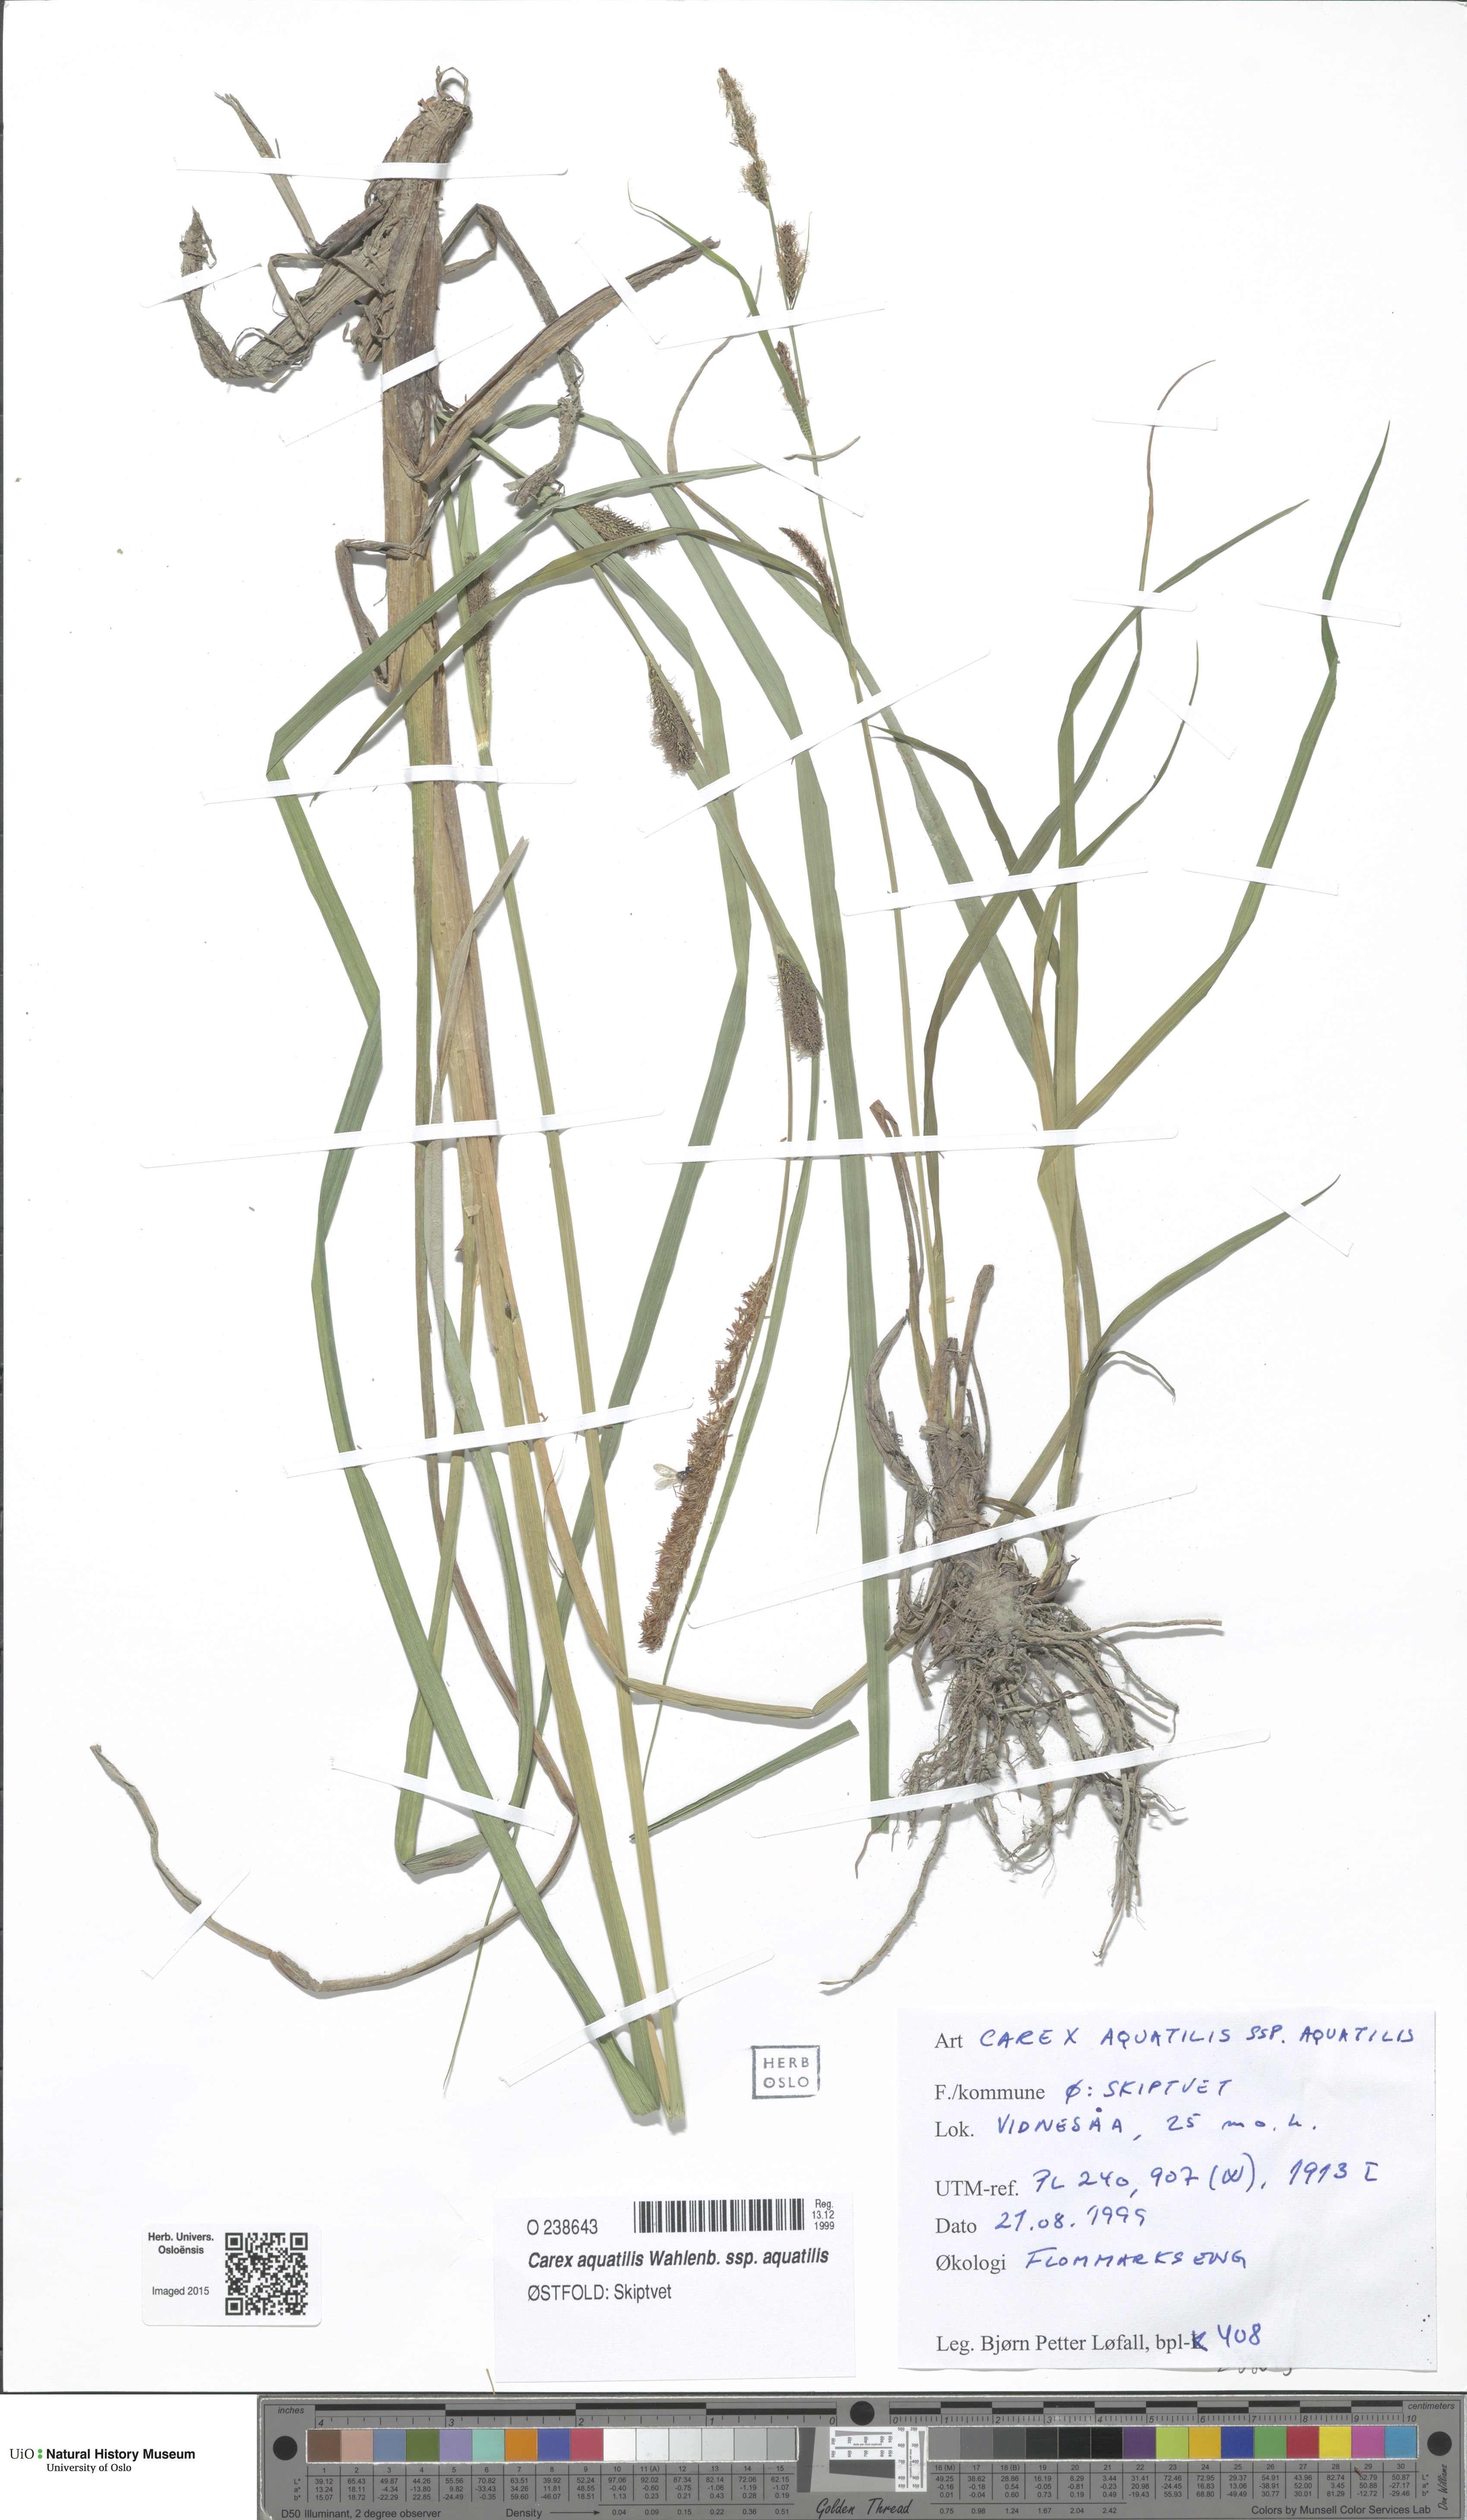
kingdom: Plantae
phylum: Tracheophyta
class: Liliopsida
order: Poales
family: Cyperaceae
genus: Carex
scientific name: Carex aquatilis
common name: Water sedge
